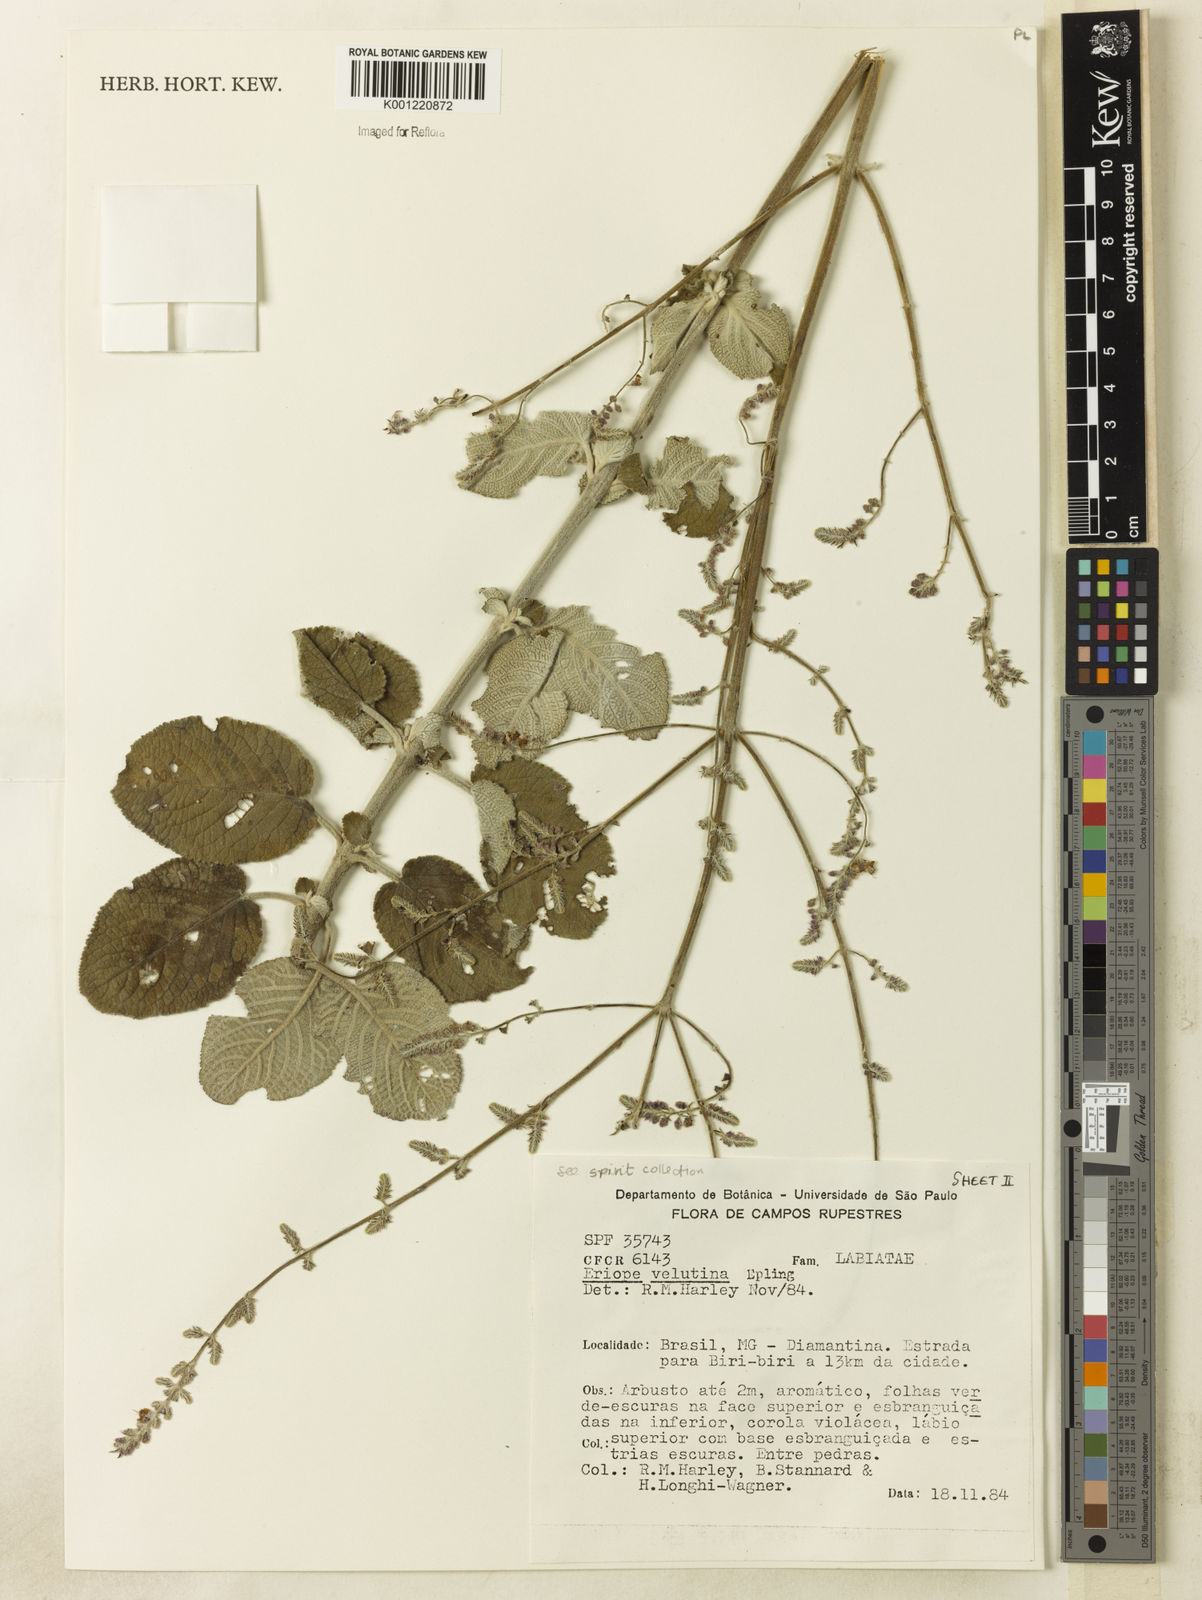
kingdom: Plantae
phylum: Tracheophyta
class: Magnoliopsida
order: Lamiales
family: Lamiaceae
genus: Eriope
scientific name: Eriope velutina
